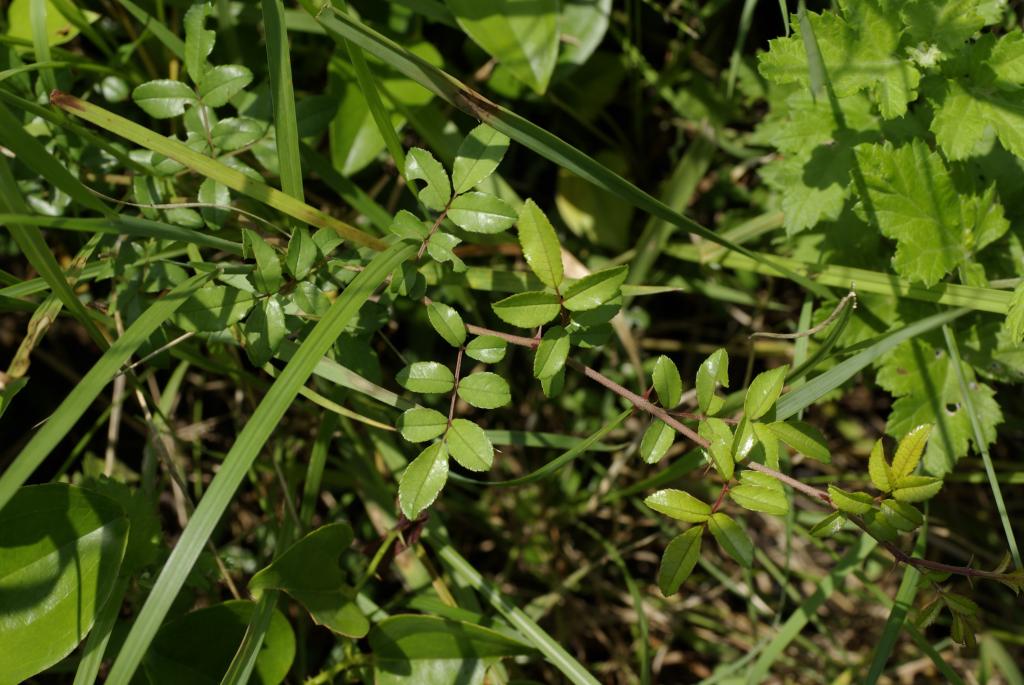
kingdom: Plantae
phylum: Tracheophyta
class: Magnoliopsida
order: Rosales
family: Rosaceae
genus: Rosa
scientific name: Rosa bracteata
